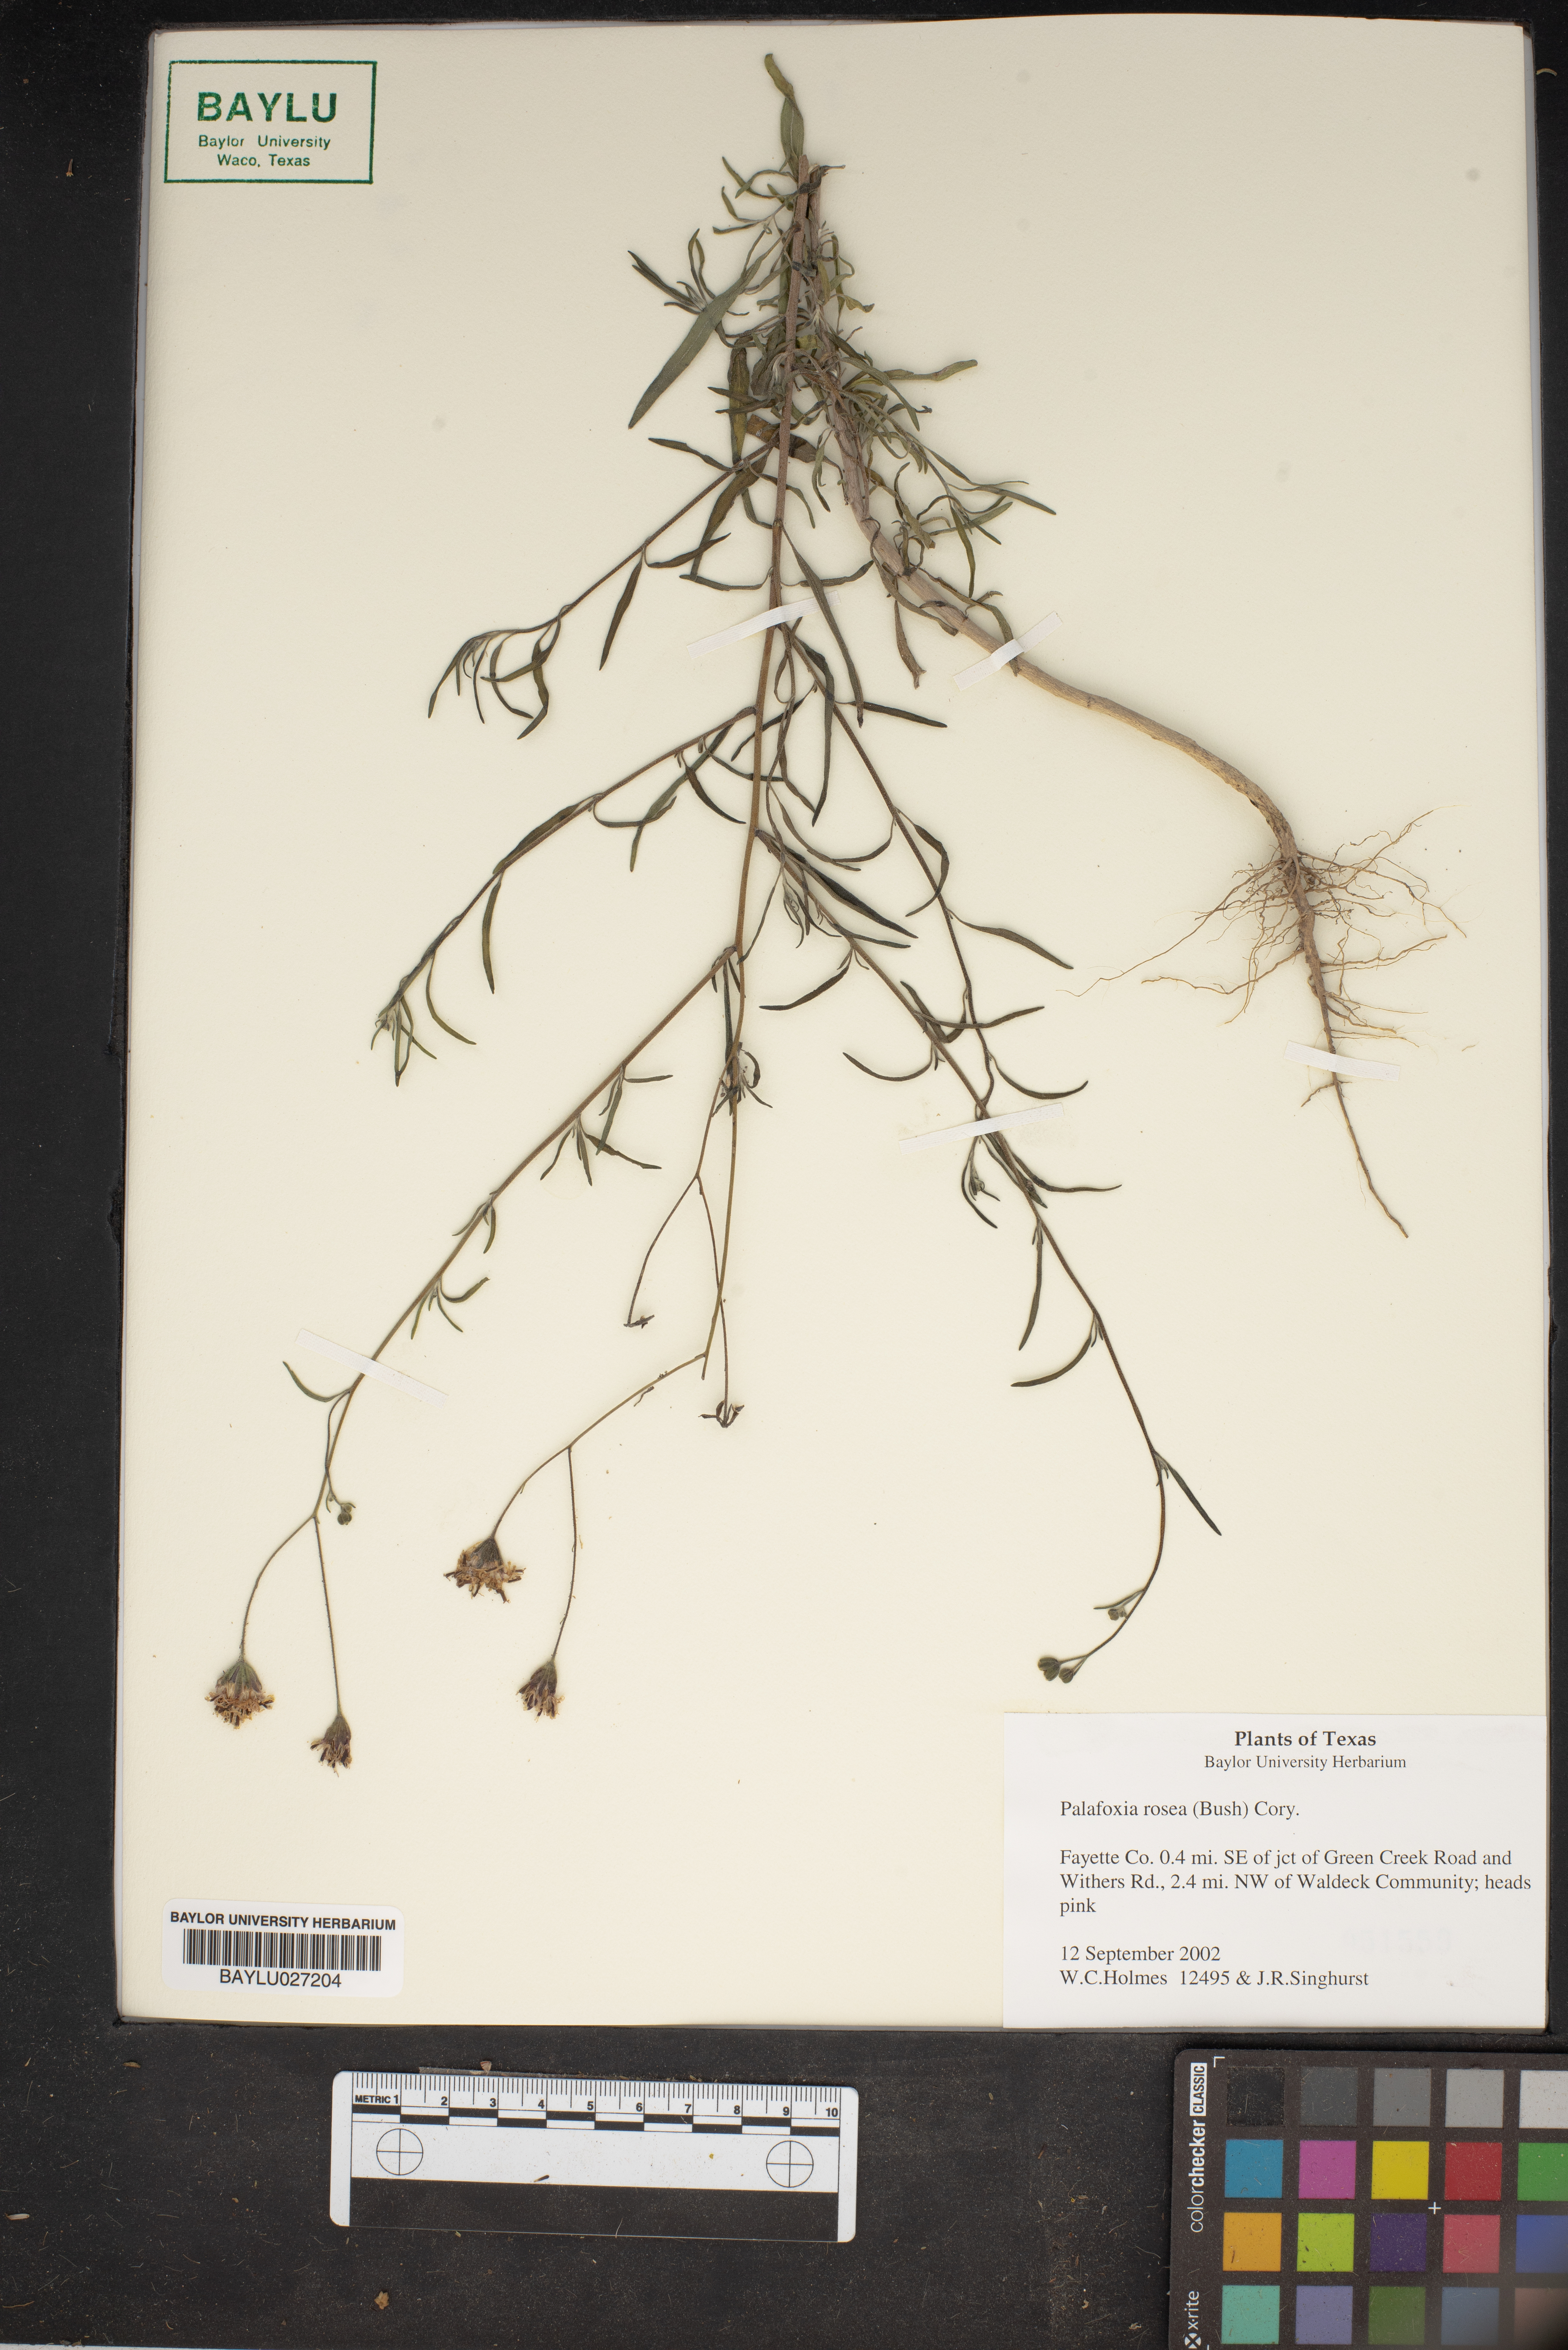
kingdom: Plantae
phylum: Tracheophyta
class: Magnoliopsida
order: Asterales
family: Asteraceae
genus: Palafoxia
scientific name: Palafoxia rosea
